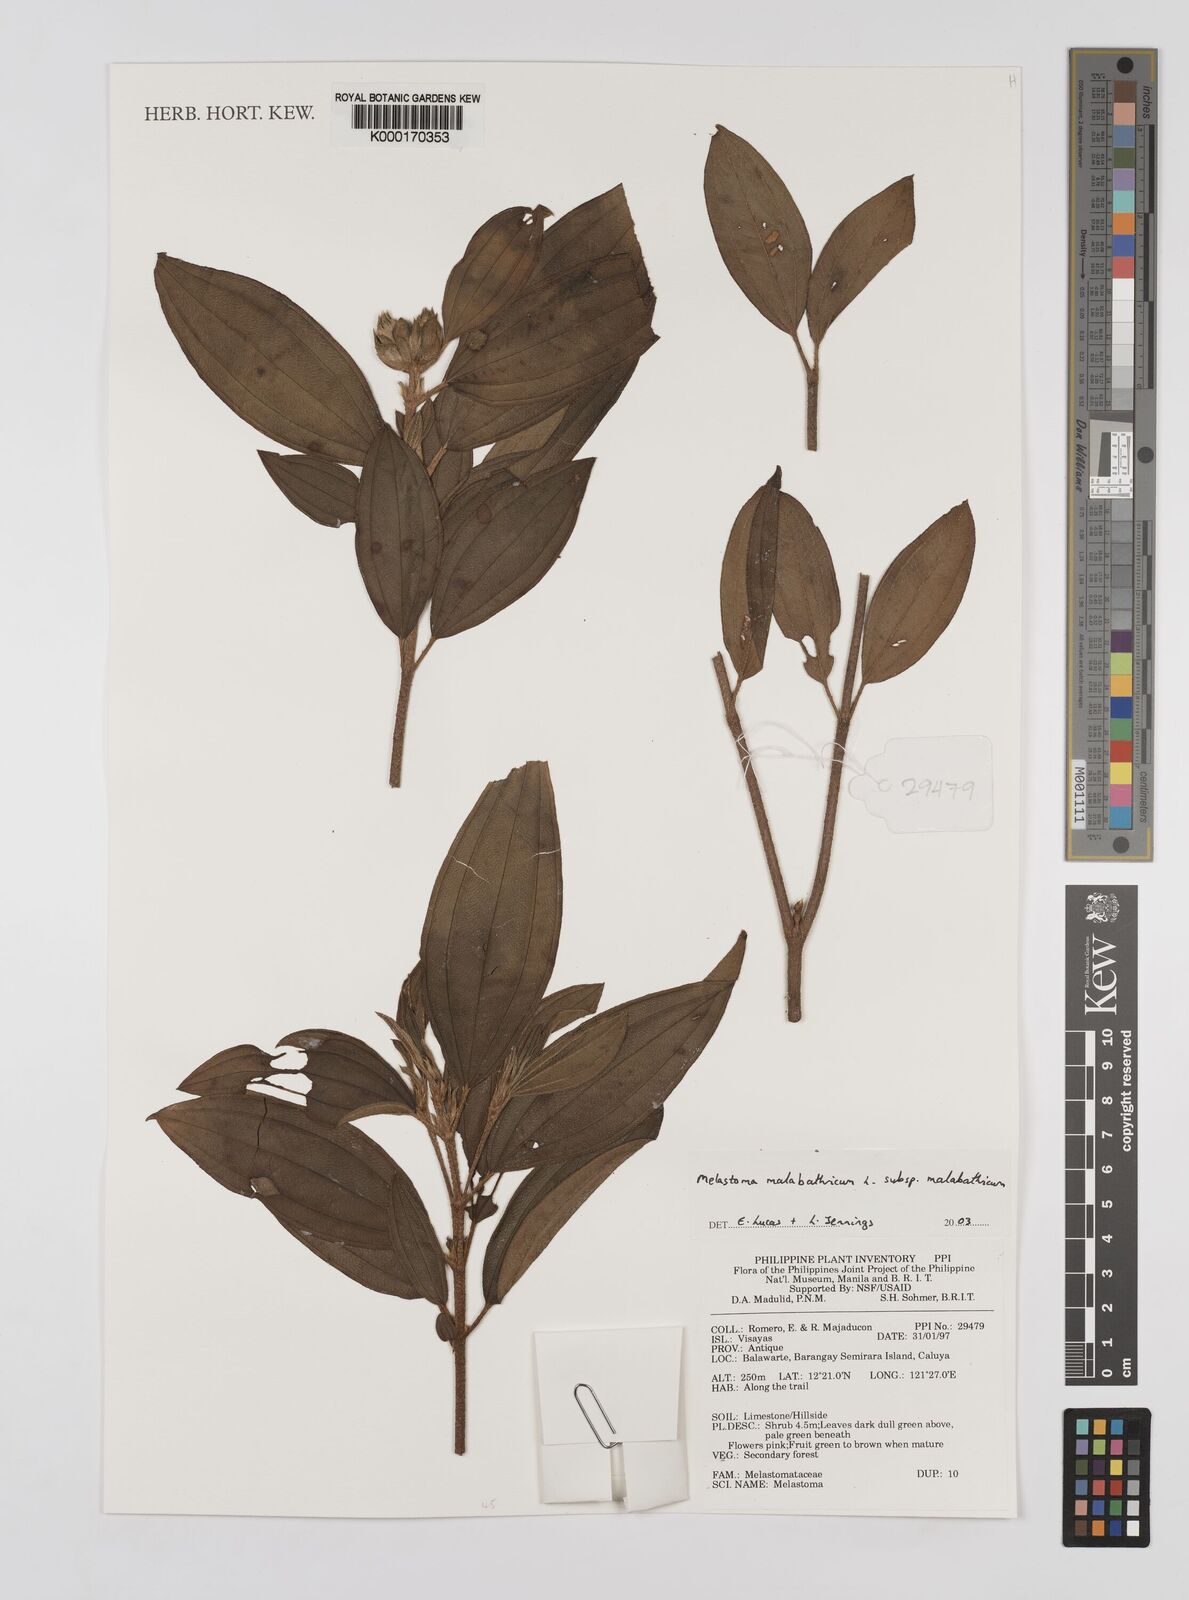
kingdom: Plantae
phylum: Tracheophyta
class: Magnoliopsida
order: Myrtales
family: Melastomataceae
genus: Melastoma
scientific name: Melastoma malabathricum
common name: Indian-rhododendron
